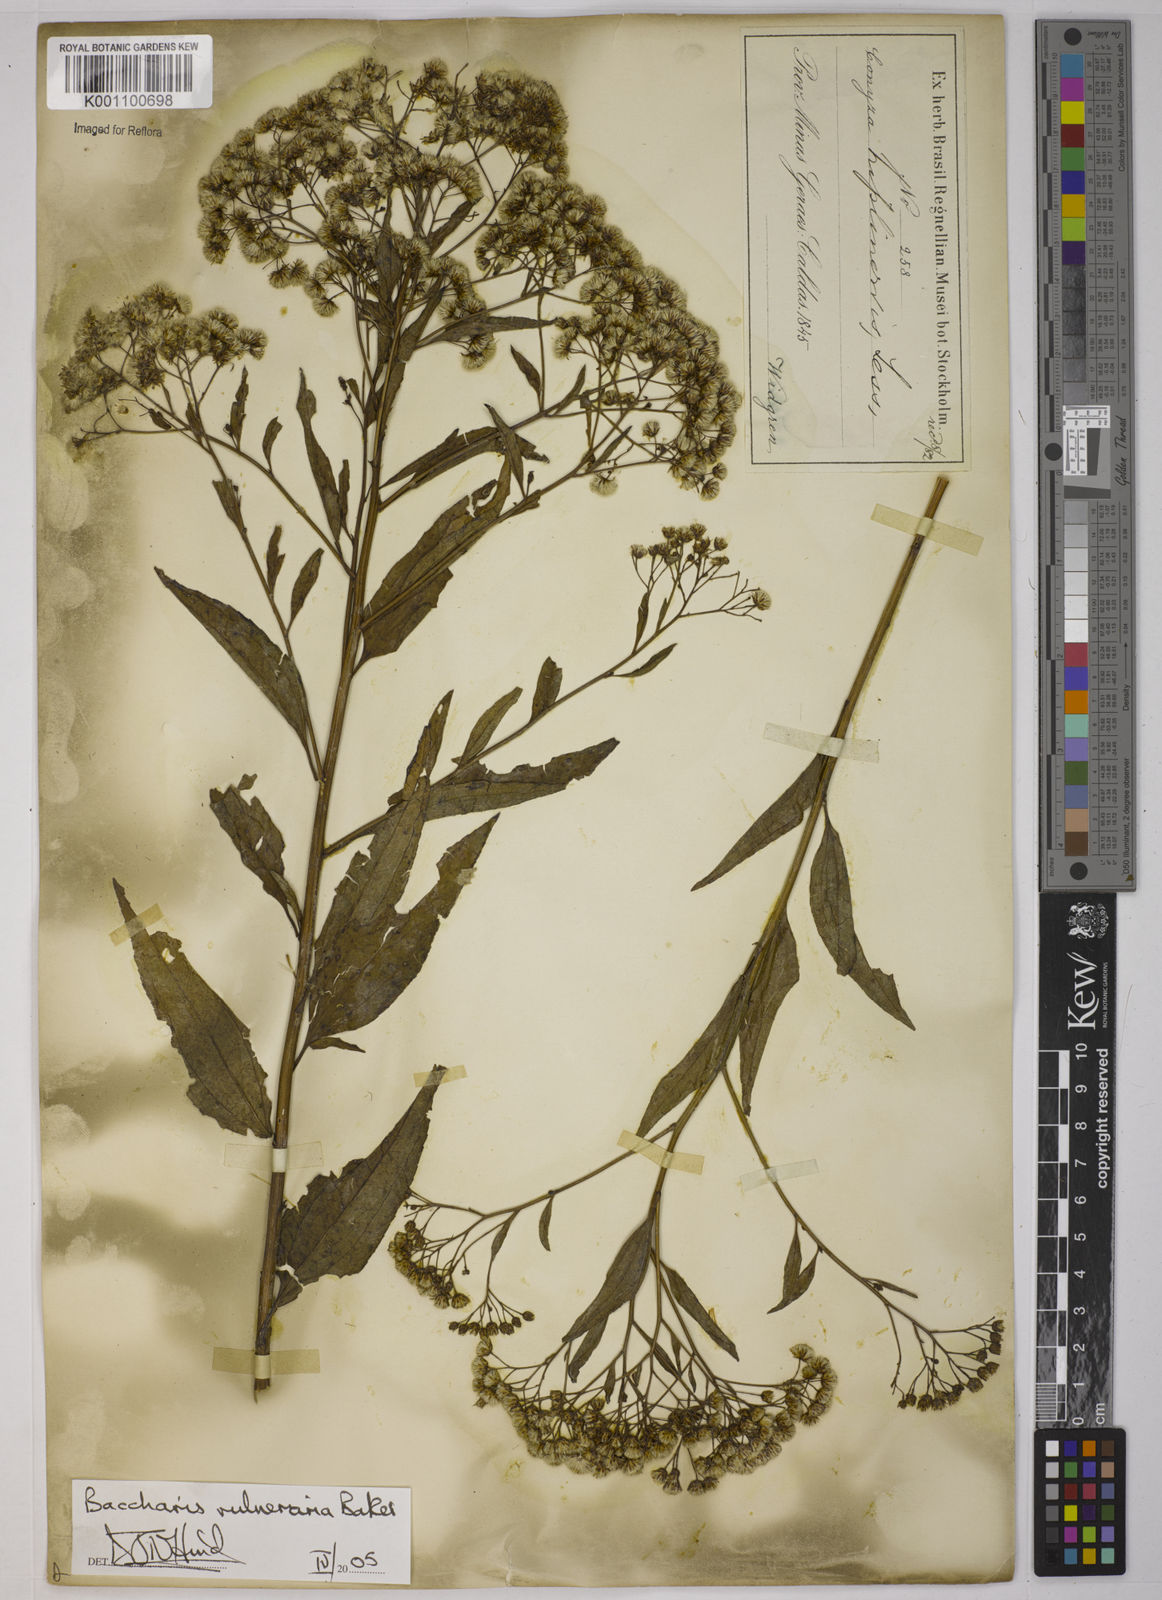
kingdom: Plantae
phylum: Tracheophyta
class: Magnoliopsida
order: Asterales
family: Asteraceae
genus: Archibaccharis
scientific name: Archibaccharis vulneraria
